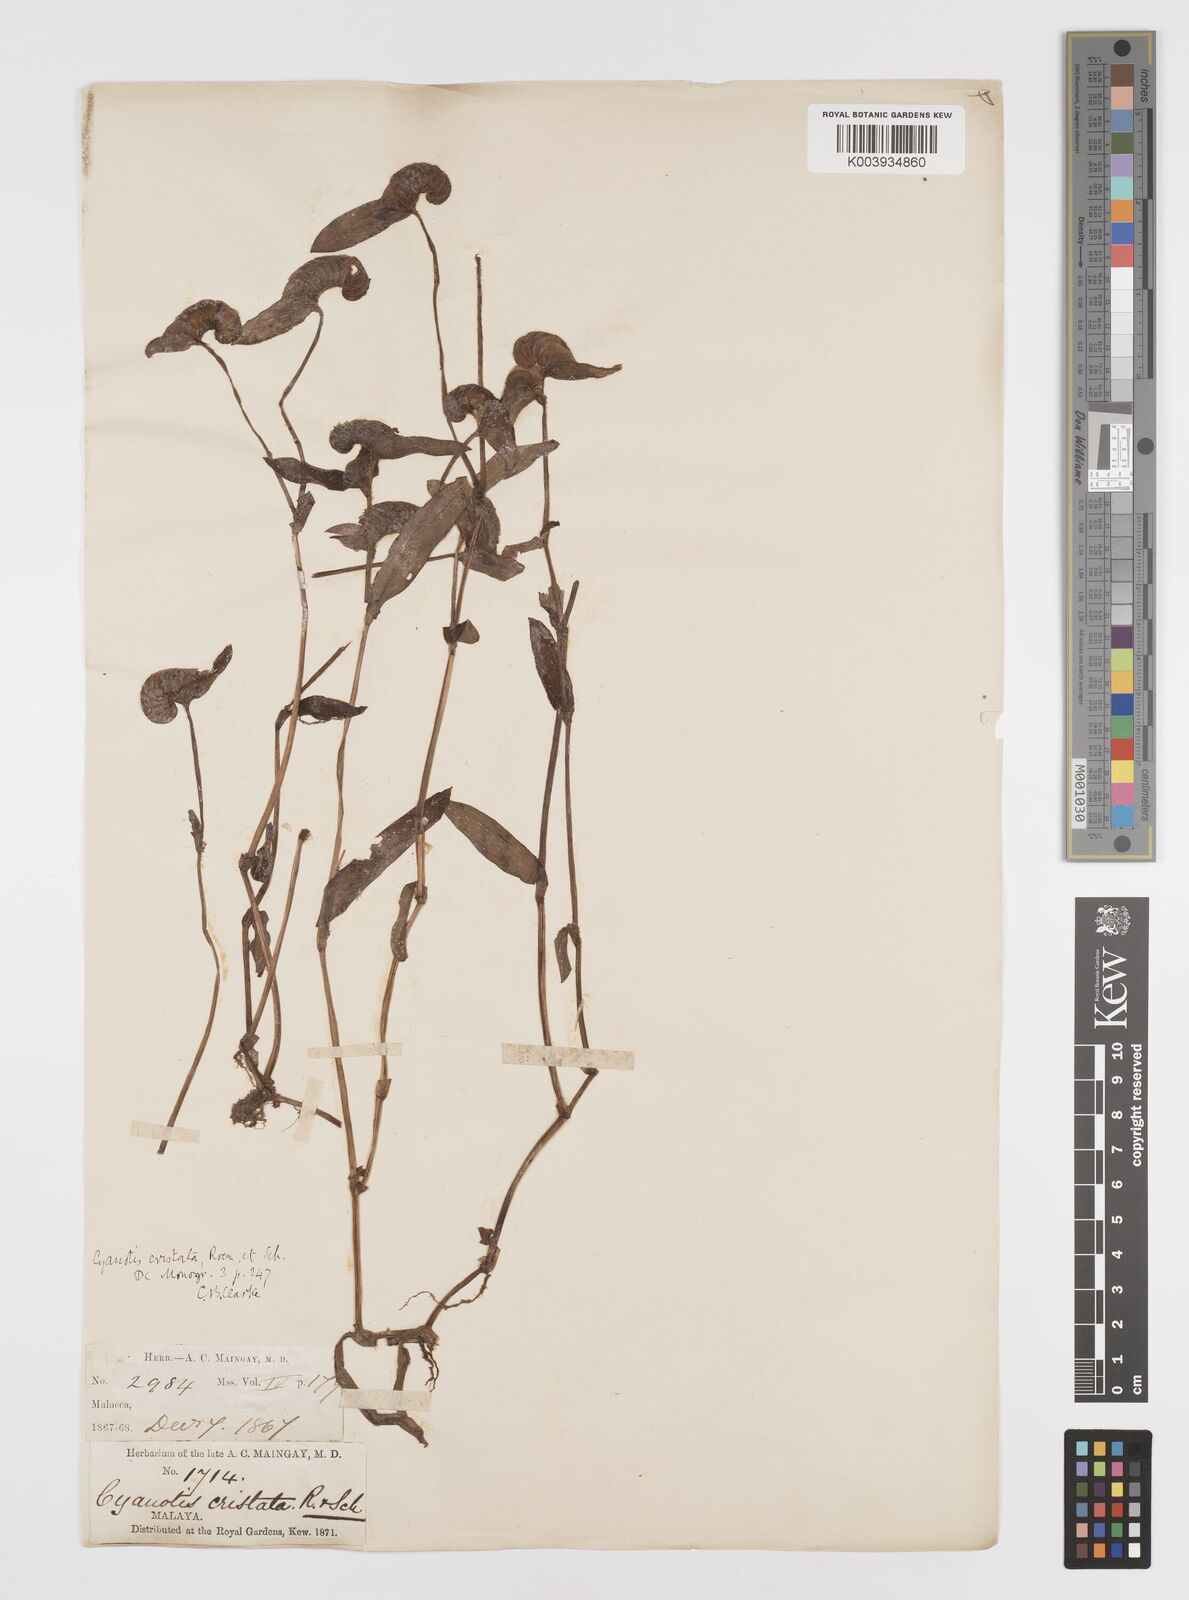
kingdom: Plantae
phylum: Tracheophyta
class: Liliopsida
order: Commelinales
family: Commelinaceae
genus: Cyanotis
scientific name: Cyanotis cristata
